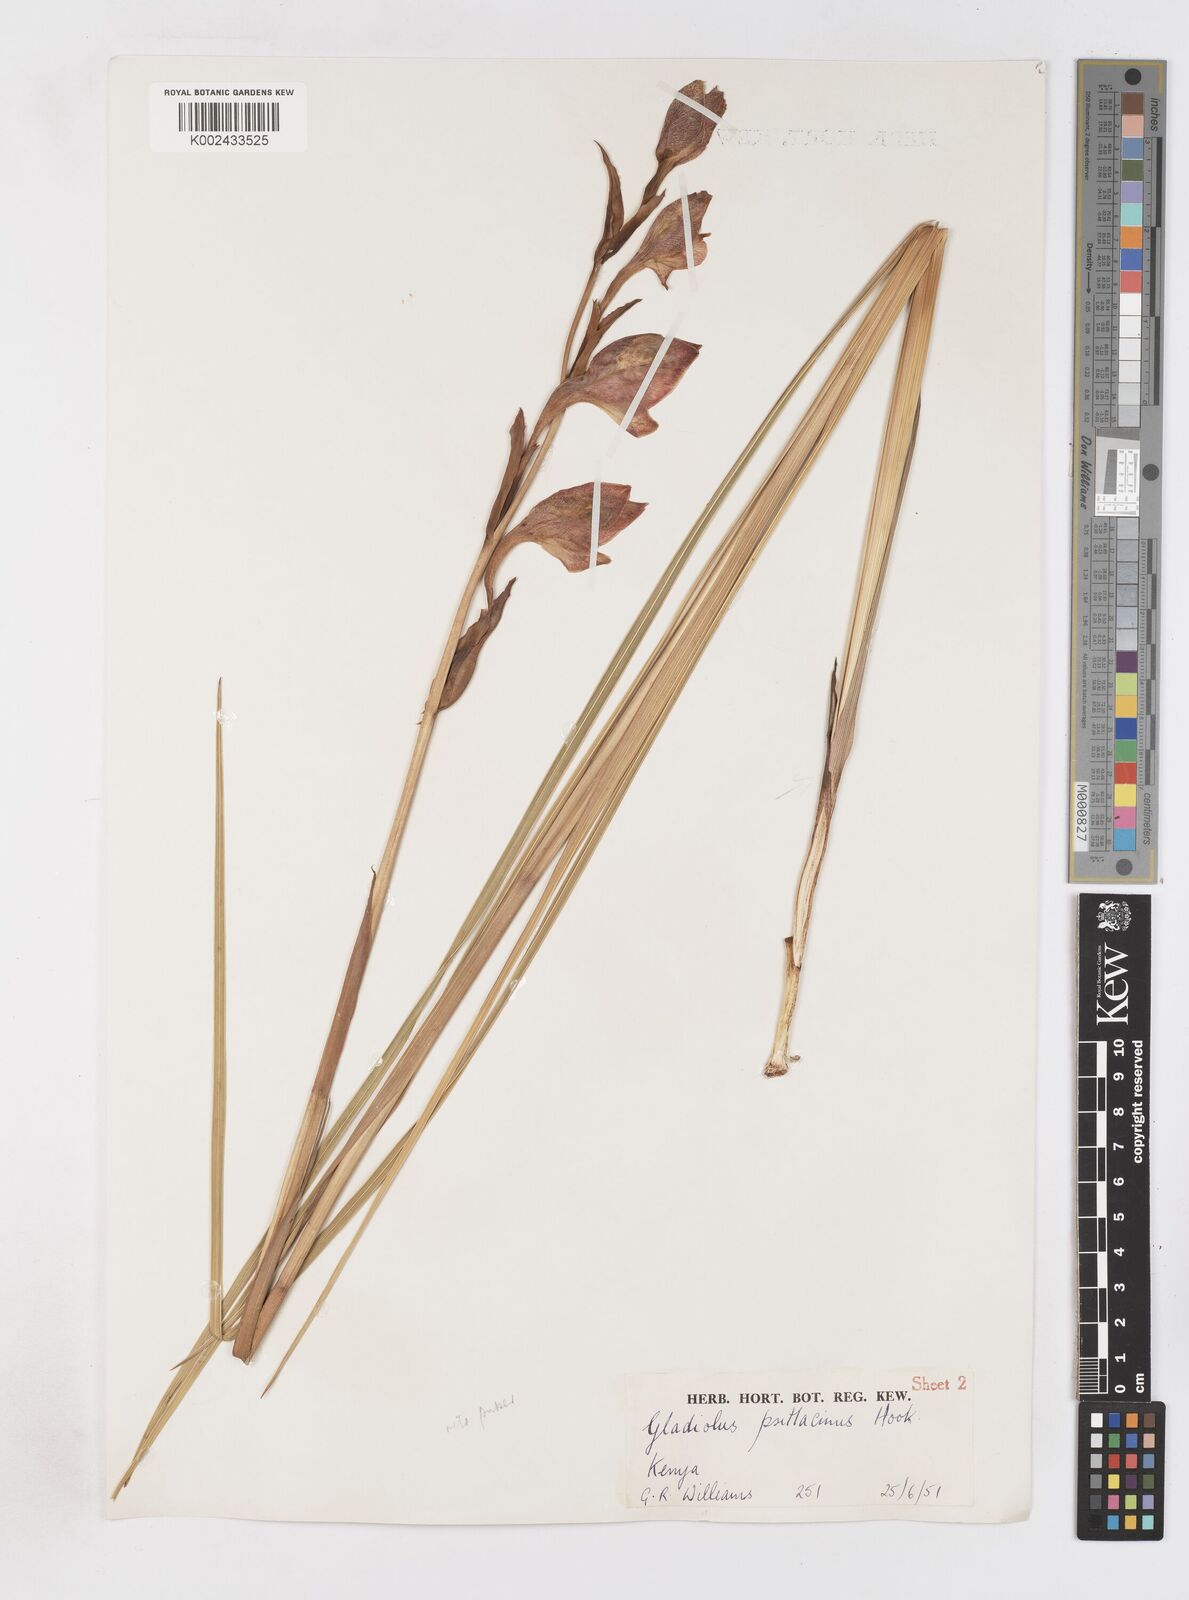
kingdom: Plantae
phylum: Tracheophyta
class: Liliopsida
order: Asparagales
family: Iridaceae
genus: Gladiolus
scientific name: Gladiolus dalenii
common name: Cornflag
